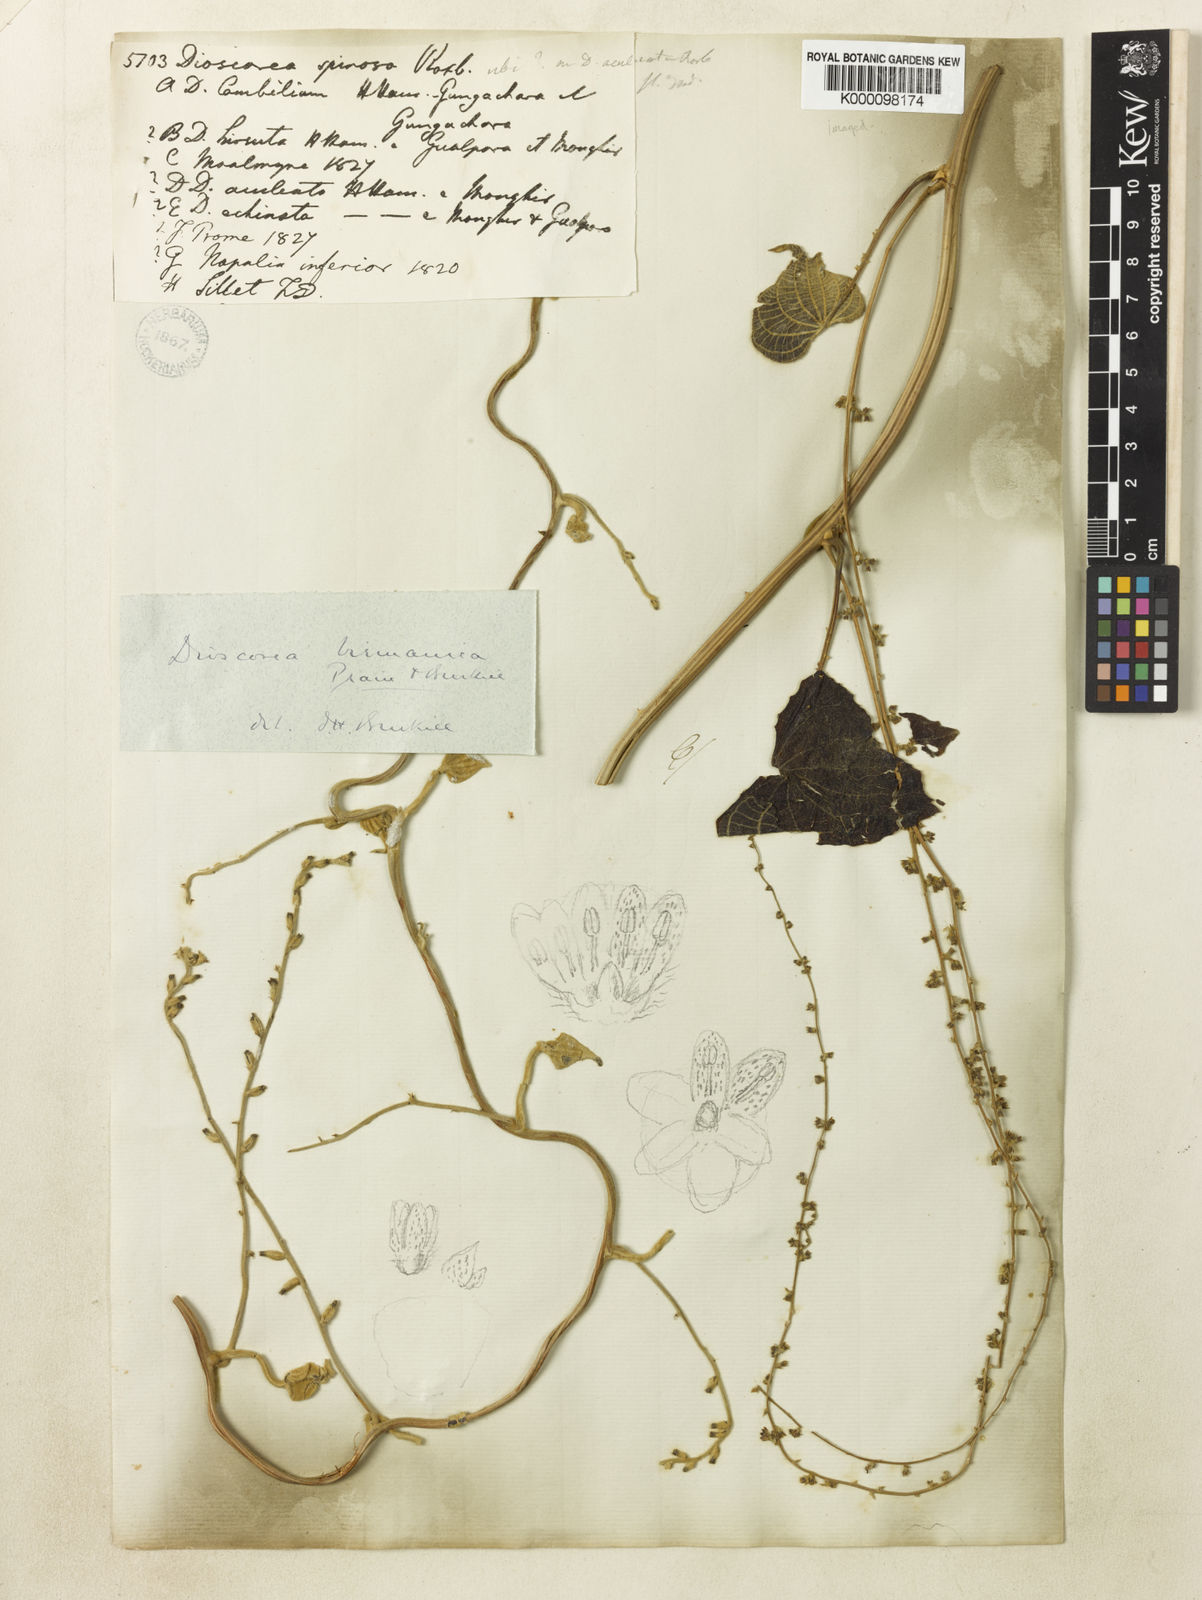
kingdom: Plantae
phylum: Tracheophyta
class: Liliopsida
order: Dioscoreales
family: Dioscoreaceae
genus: Dioscorea
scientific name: Dioscorea birmanica
